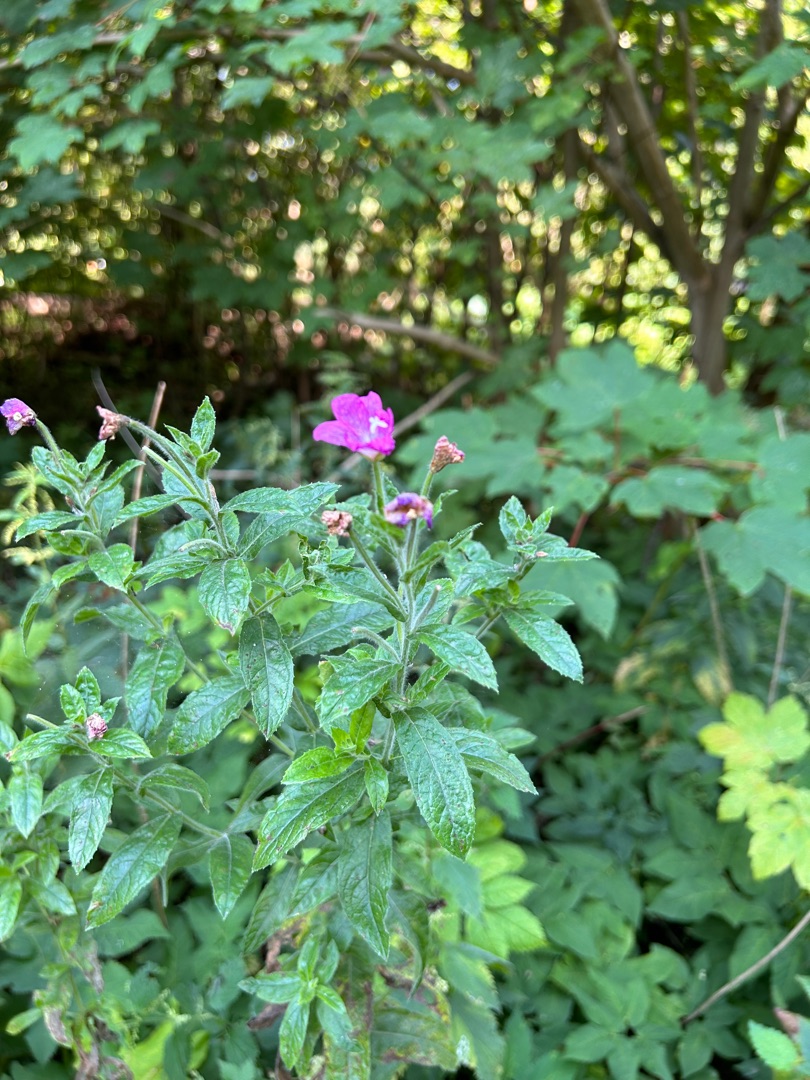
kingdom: Plantae
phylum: Tracheophyta
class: Magnoliopsida
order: Myrtales
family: Onagraceae
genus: Epilobium
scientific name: Epilobium hirsutum
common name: Lådden dueurt
